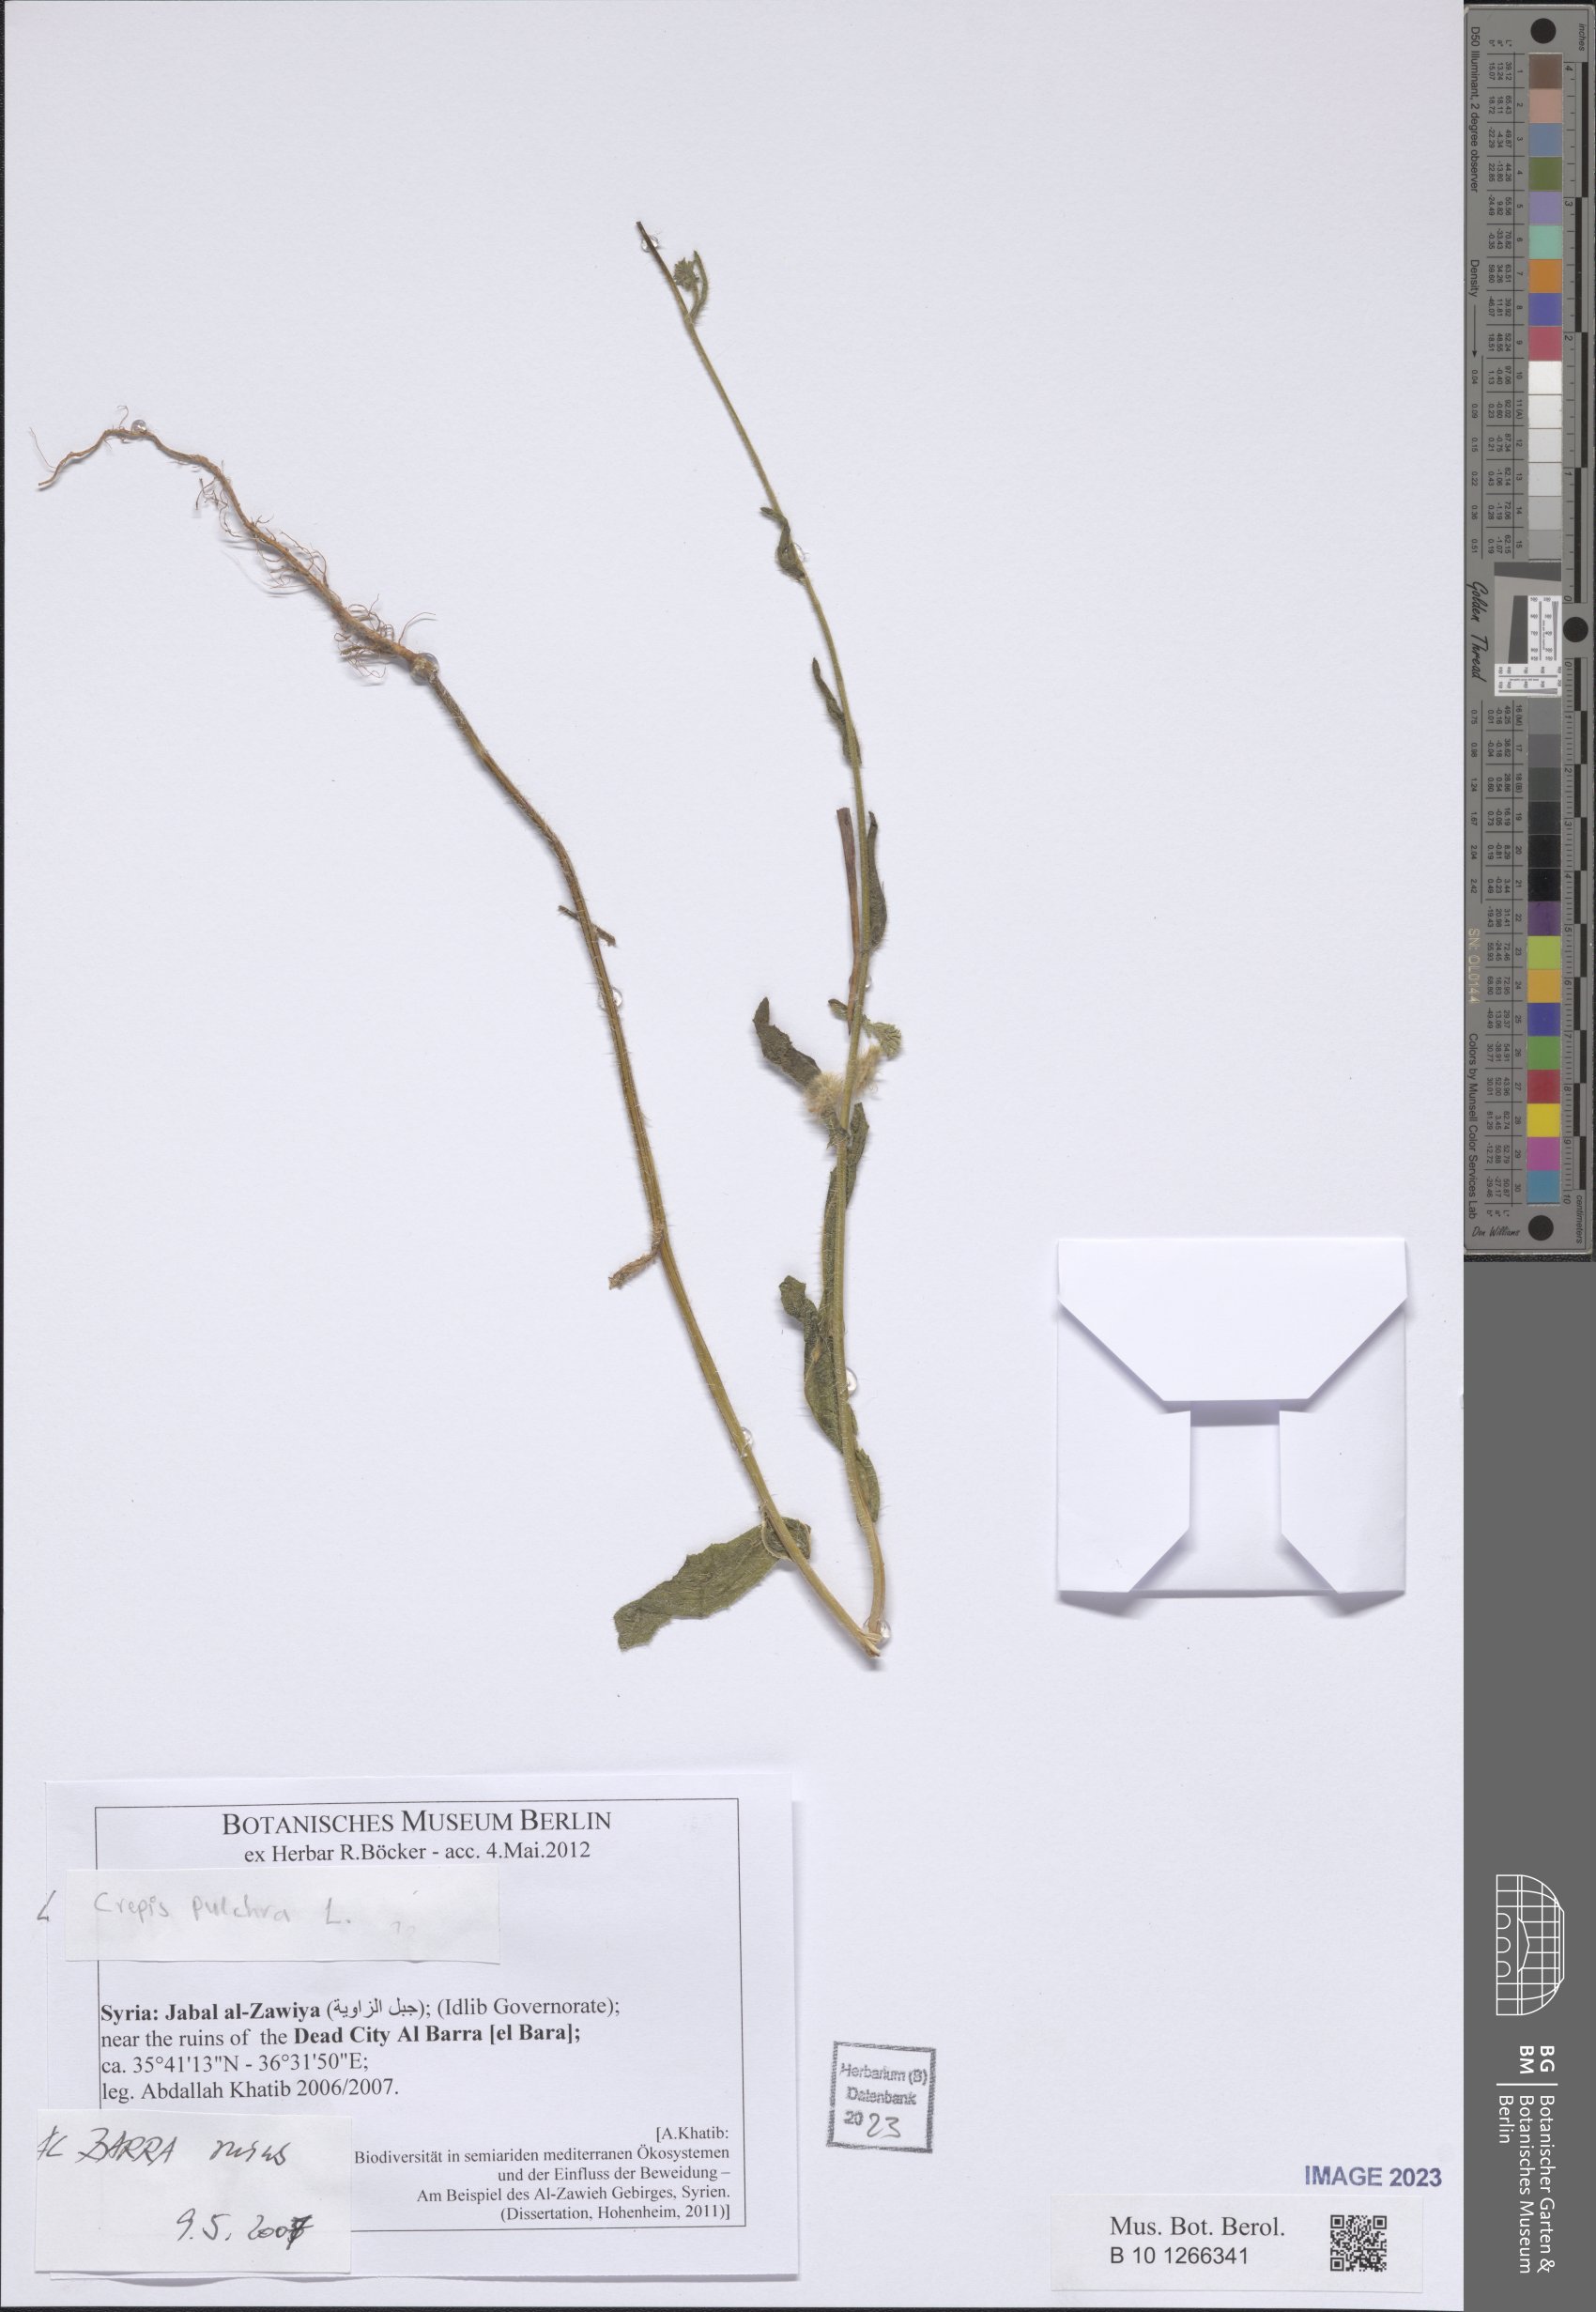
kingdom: Plantae
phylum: Tracheophyta
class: Magnoliopsida
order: Asterales
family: Asteraceae
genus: Crepis
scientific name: Crepis pulchra
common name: Hawk's-beard
